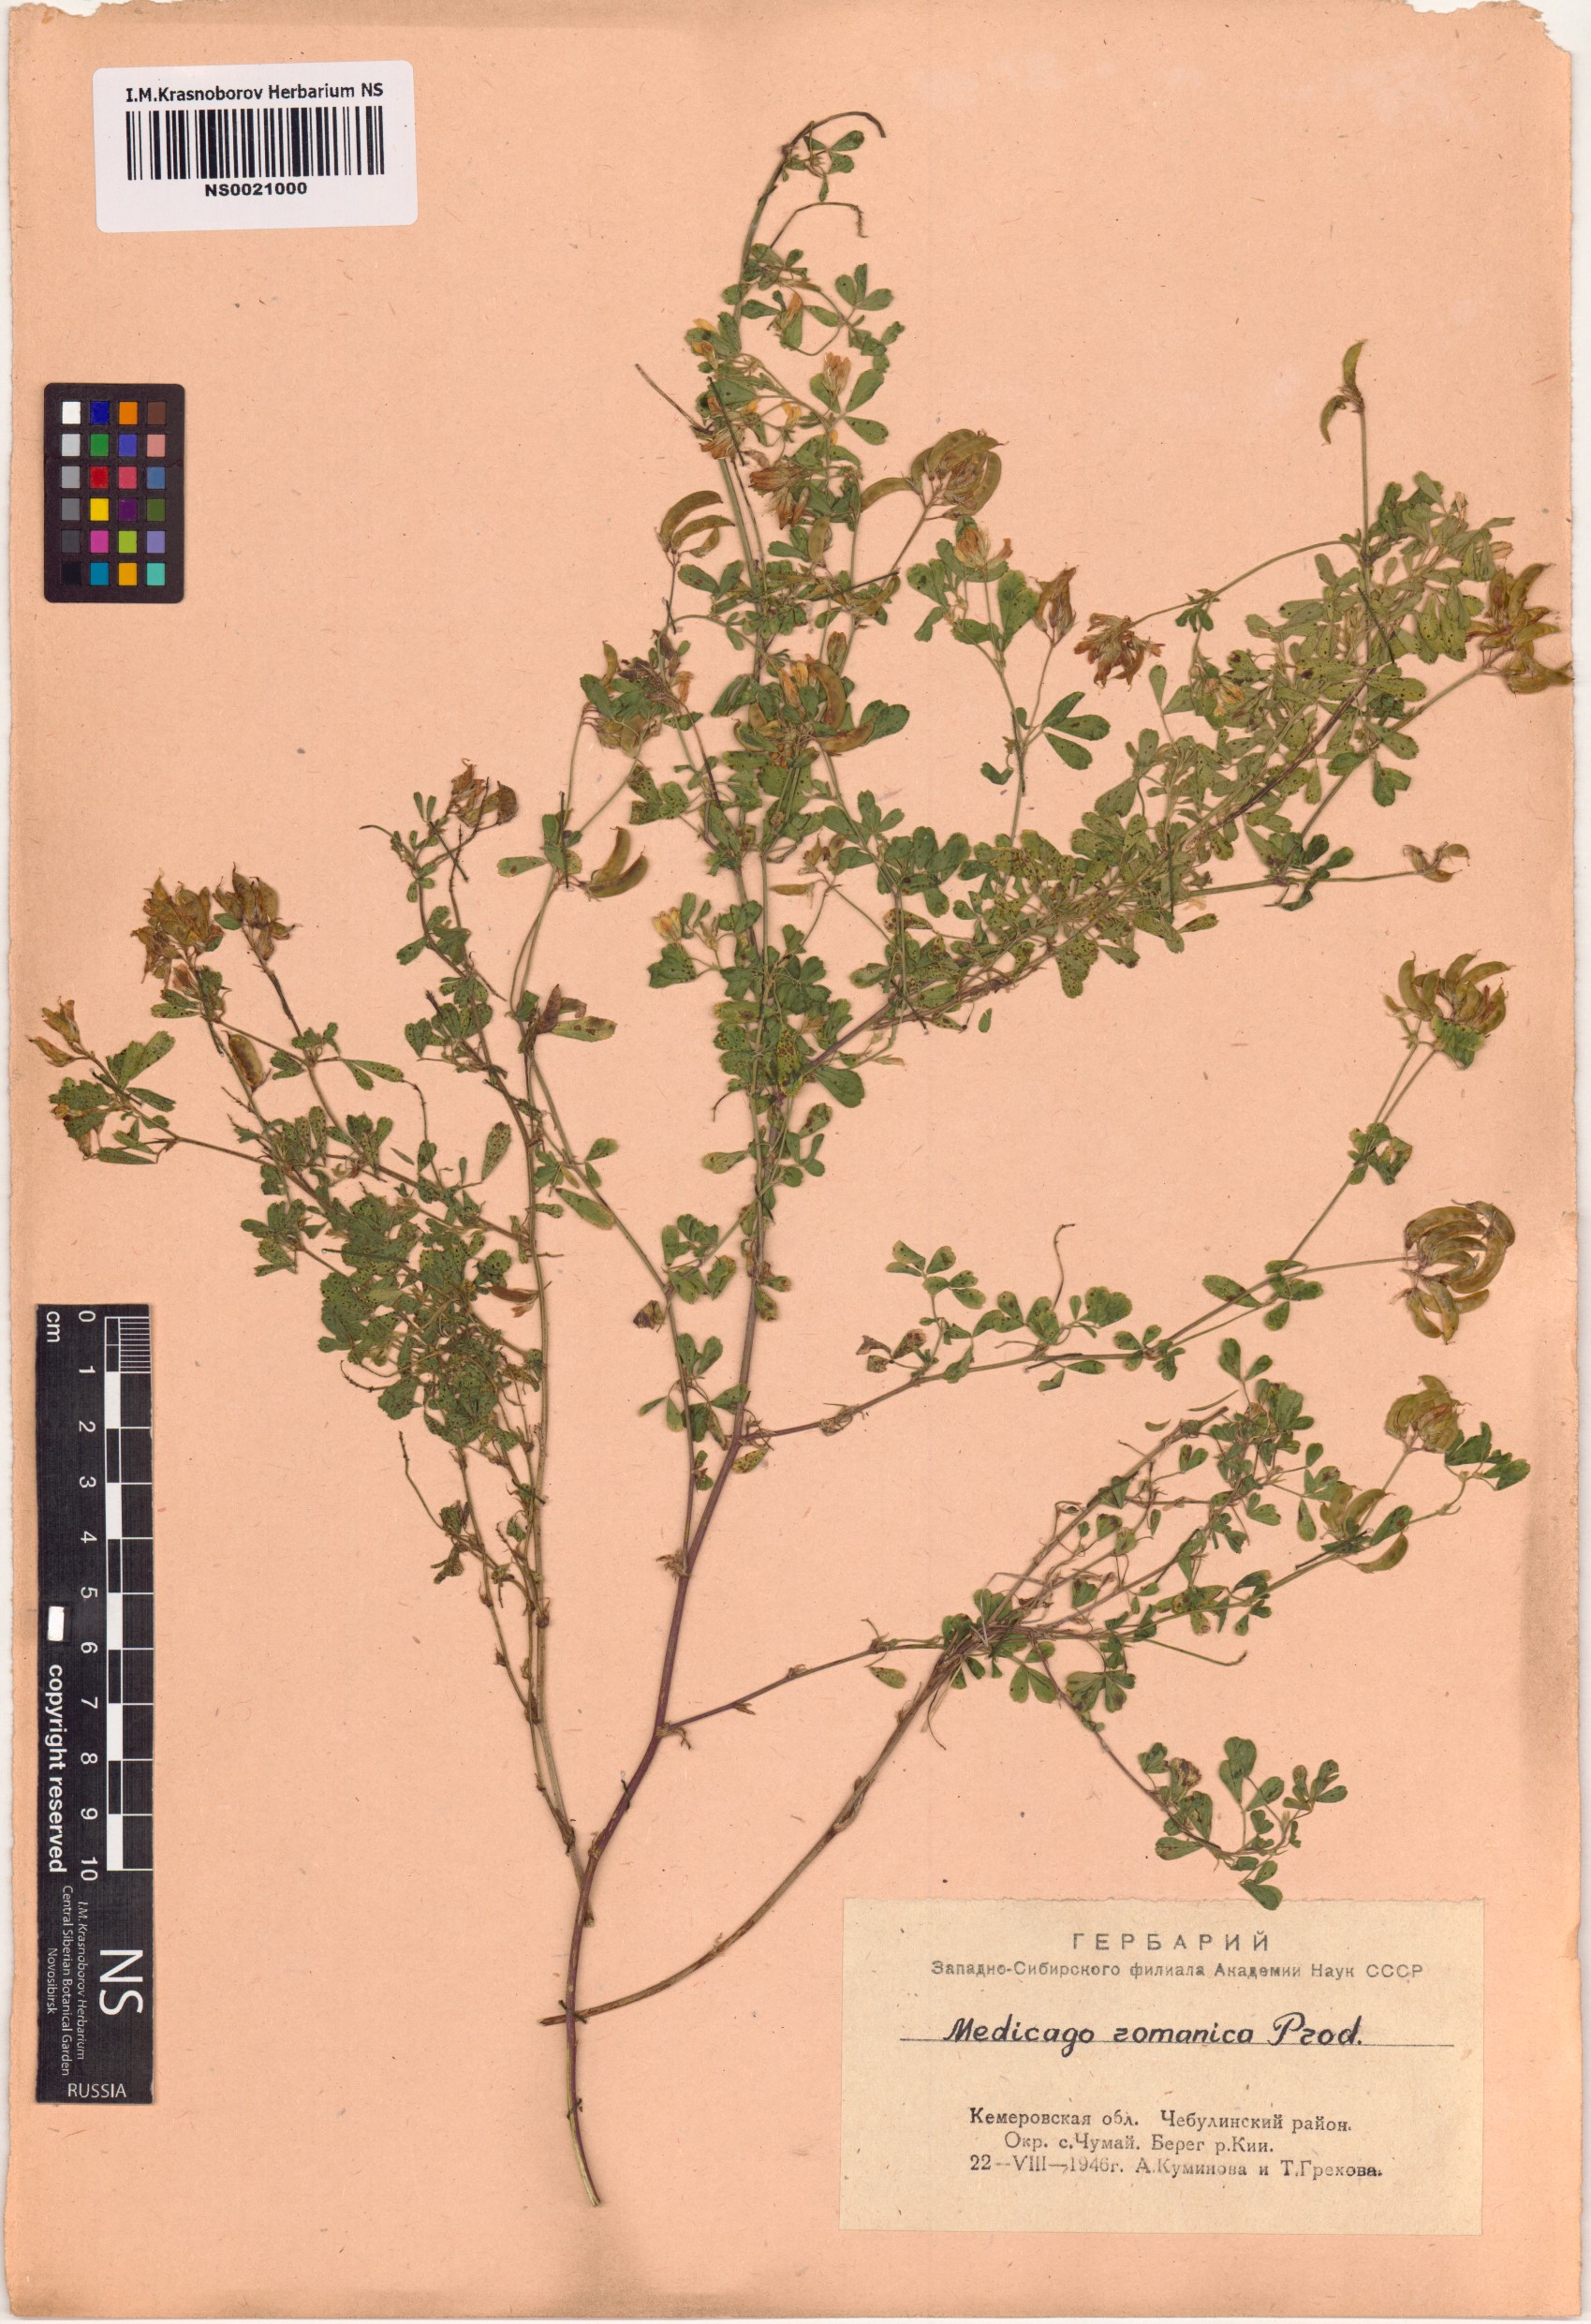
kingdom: Plantae
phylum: Tracheophyta
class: Magnoliopsida
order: Fabales
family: Fabaceae
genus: Medicago
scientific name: Medicago falcata
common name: Sickle medick
